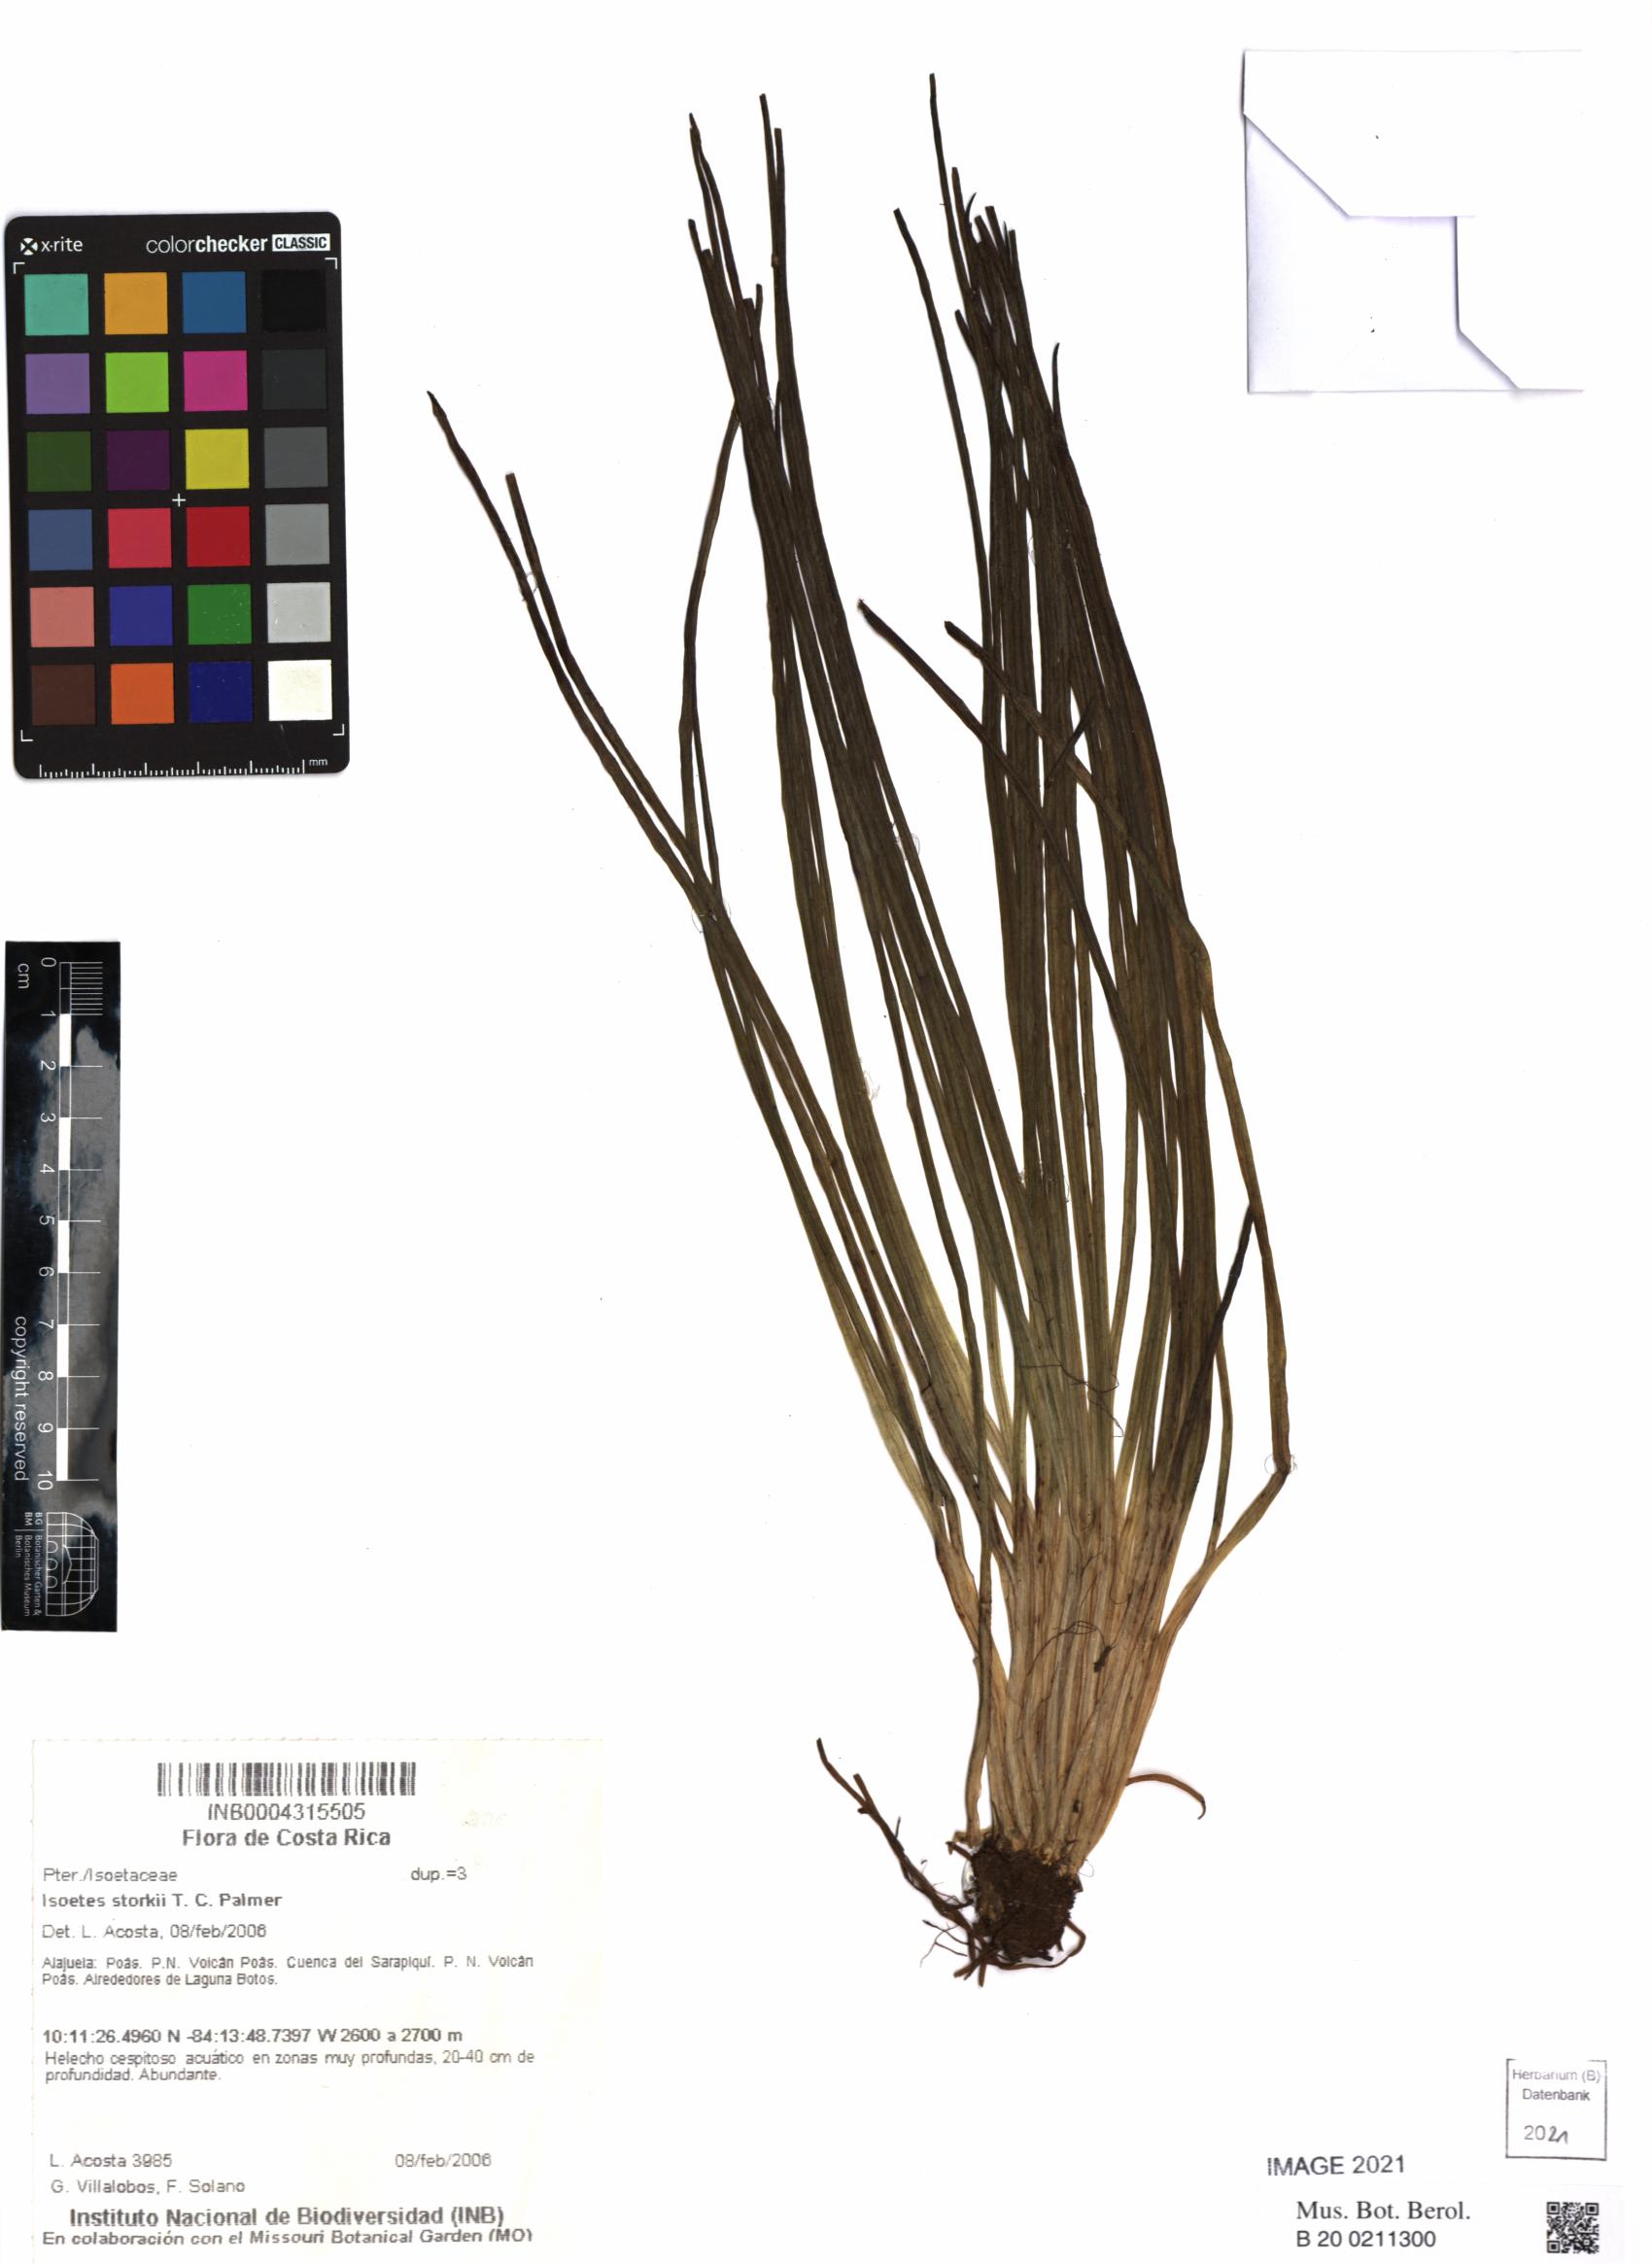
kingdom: Plantae
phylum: Tracheophyta
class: Lycopodiopsida
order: Isoetales
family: Isoetaceae
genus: Isoetes
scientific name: Isoetes storkii
